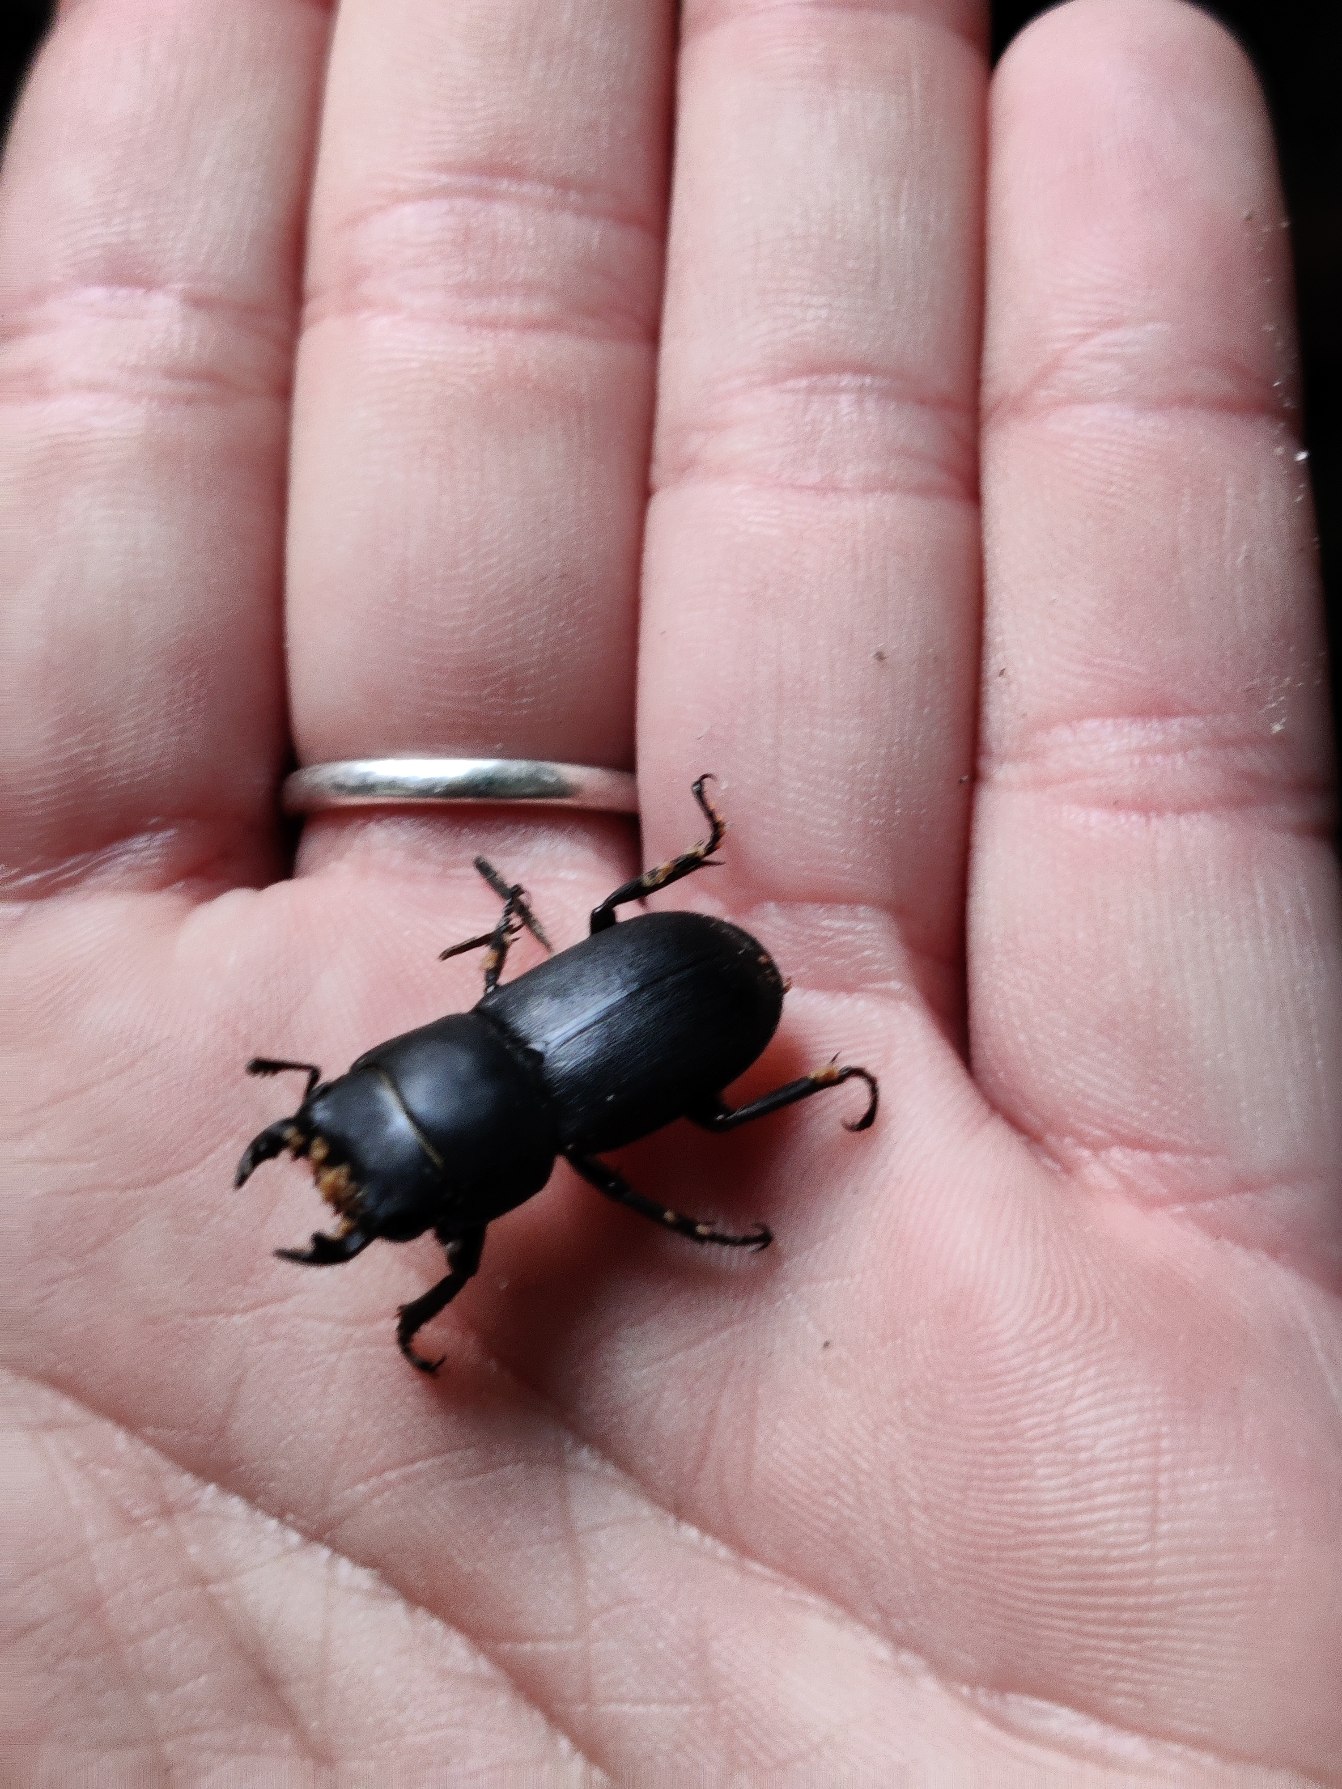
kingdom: Animalia
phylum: Arthropoda
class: Insecta
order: Coleoptera
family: Lucanidae
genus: Dorcus
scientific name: Dorcus parallelipipedus
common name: Bøghjort
